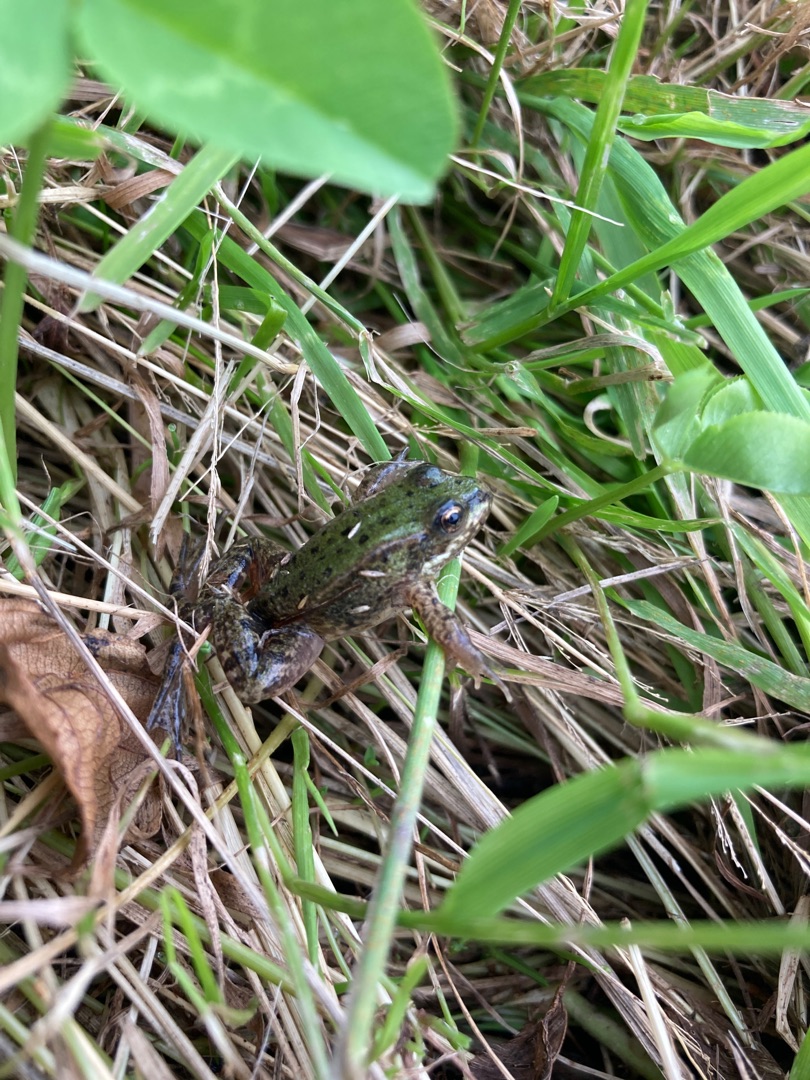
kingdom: Animalia
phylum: Chordata
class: Amphibia
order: Anura
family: Ranidae
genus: Pelophylax
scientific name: Pelophylax lessonae
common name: Grøn frø
